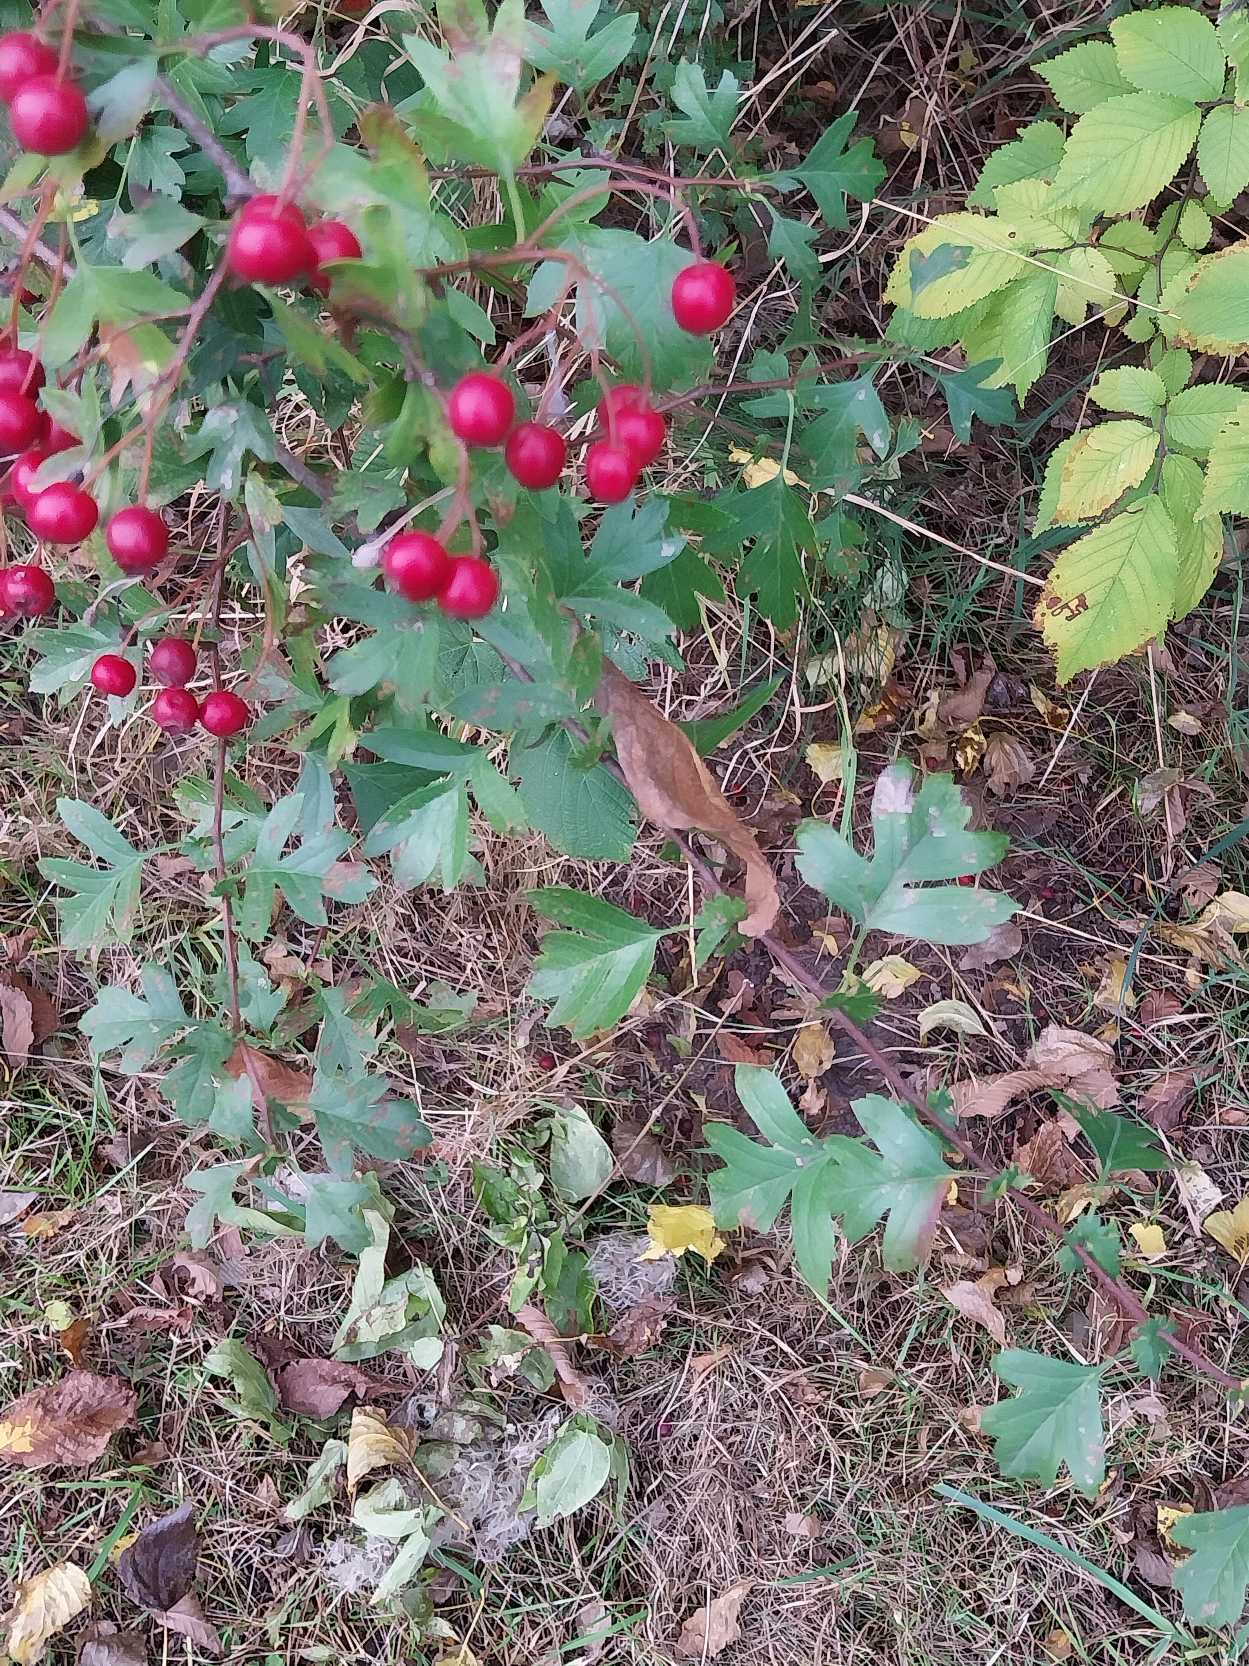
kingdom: Plantae
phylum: Tracheophyta
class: Magnoliopsida
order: Rosales
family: Rosaceae
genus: Crataegus
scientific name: Crataegus monogyna
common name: Engriflet hvidtjørn
